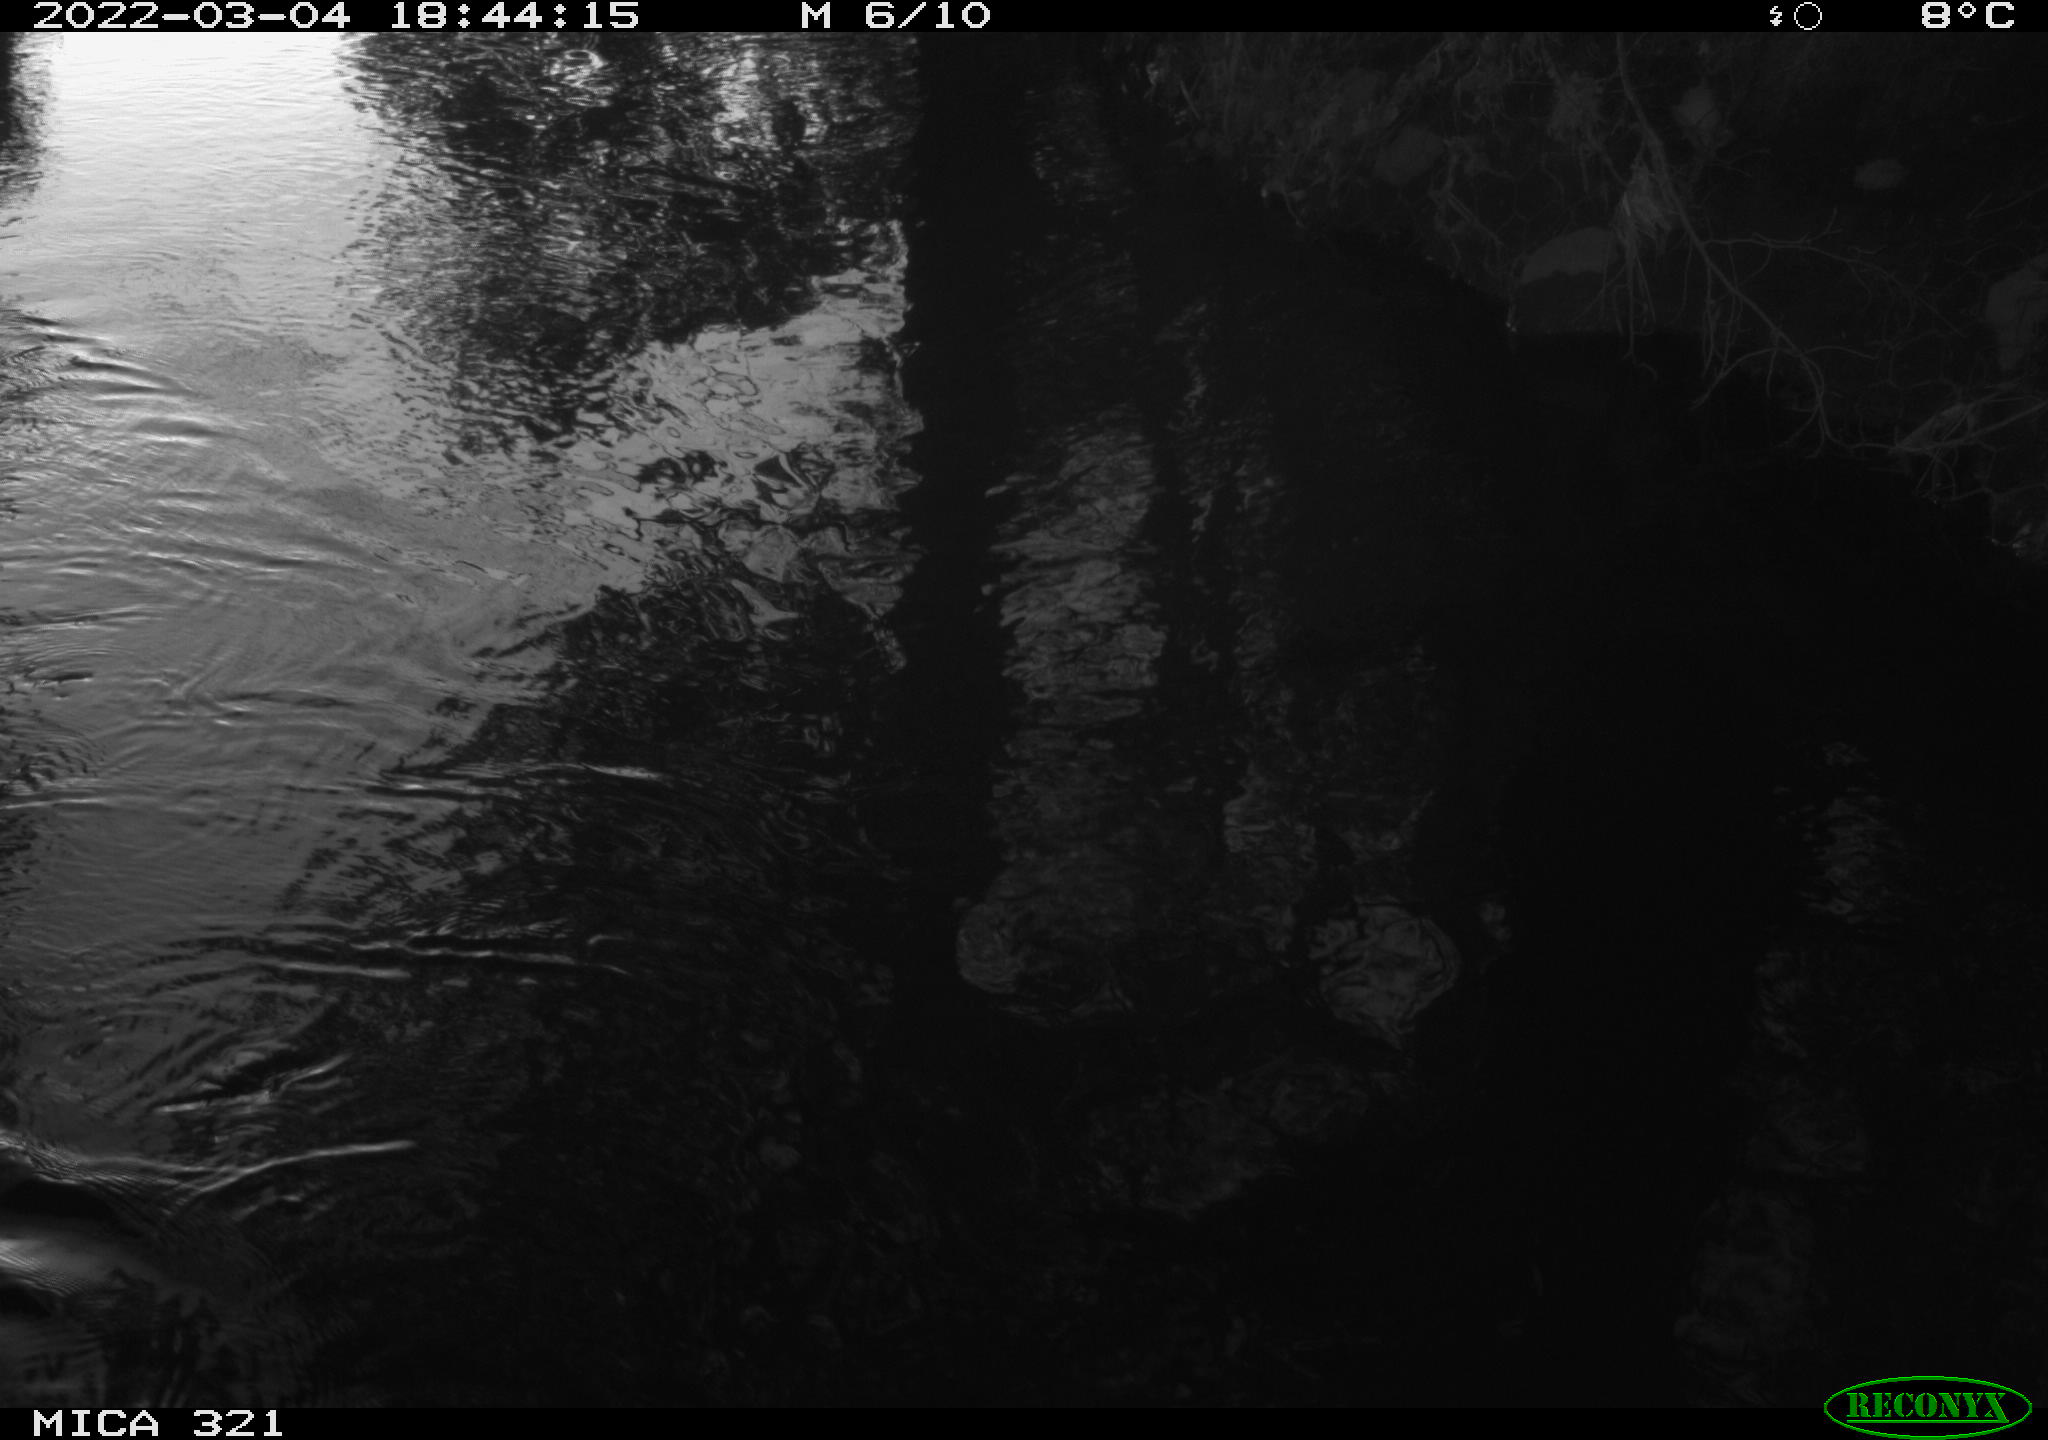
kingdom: Animalia
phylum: Chordata
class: Aves
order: Anseriformes
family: Anatidae
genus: Anas
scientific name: Anas platyrhynchos
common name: Mallard
